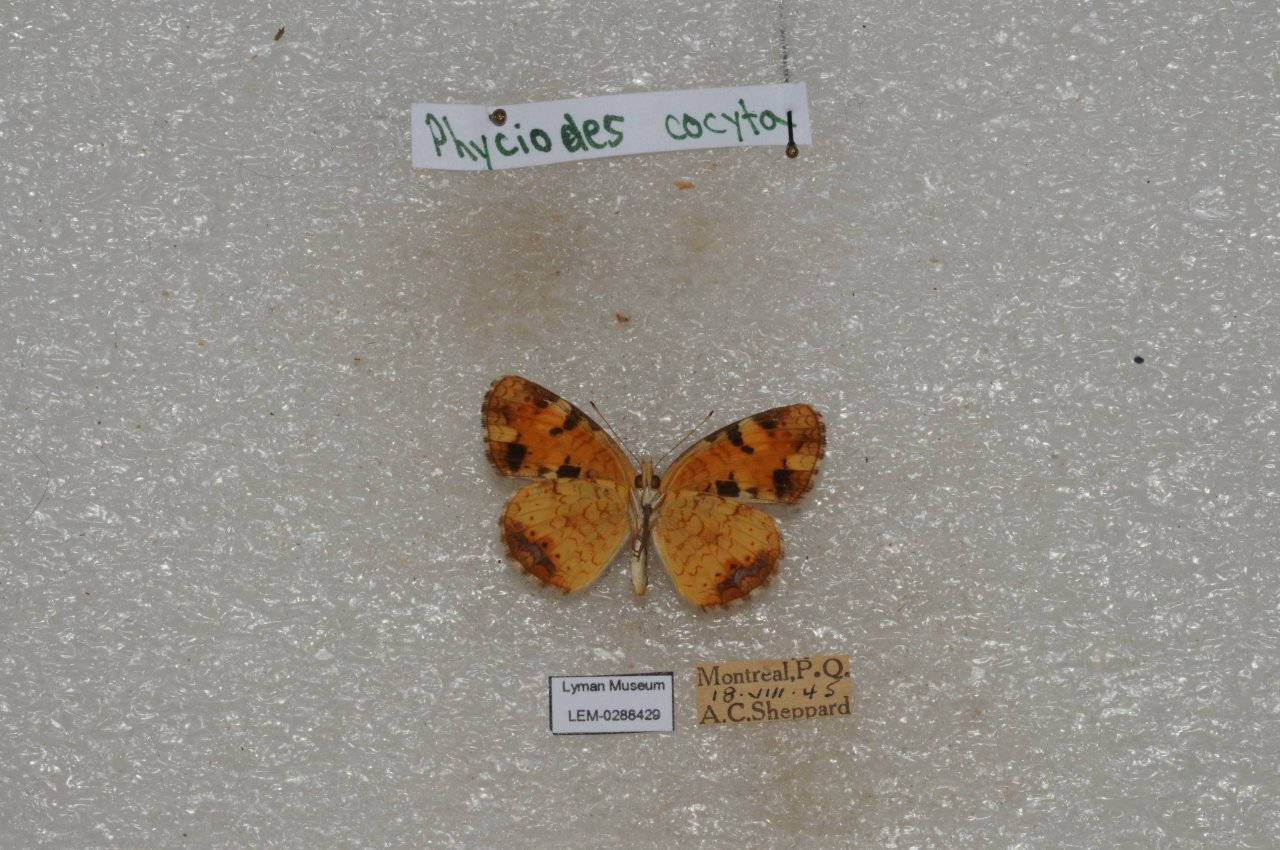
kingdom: Animalia
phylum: Arthropoda
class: Insecta
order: Lepidoptera
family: Nymphalidae
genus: Phyciodes
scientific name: Phyciodes tharos
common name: Northern Crescent
